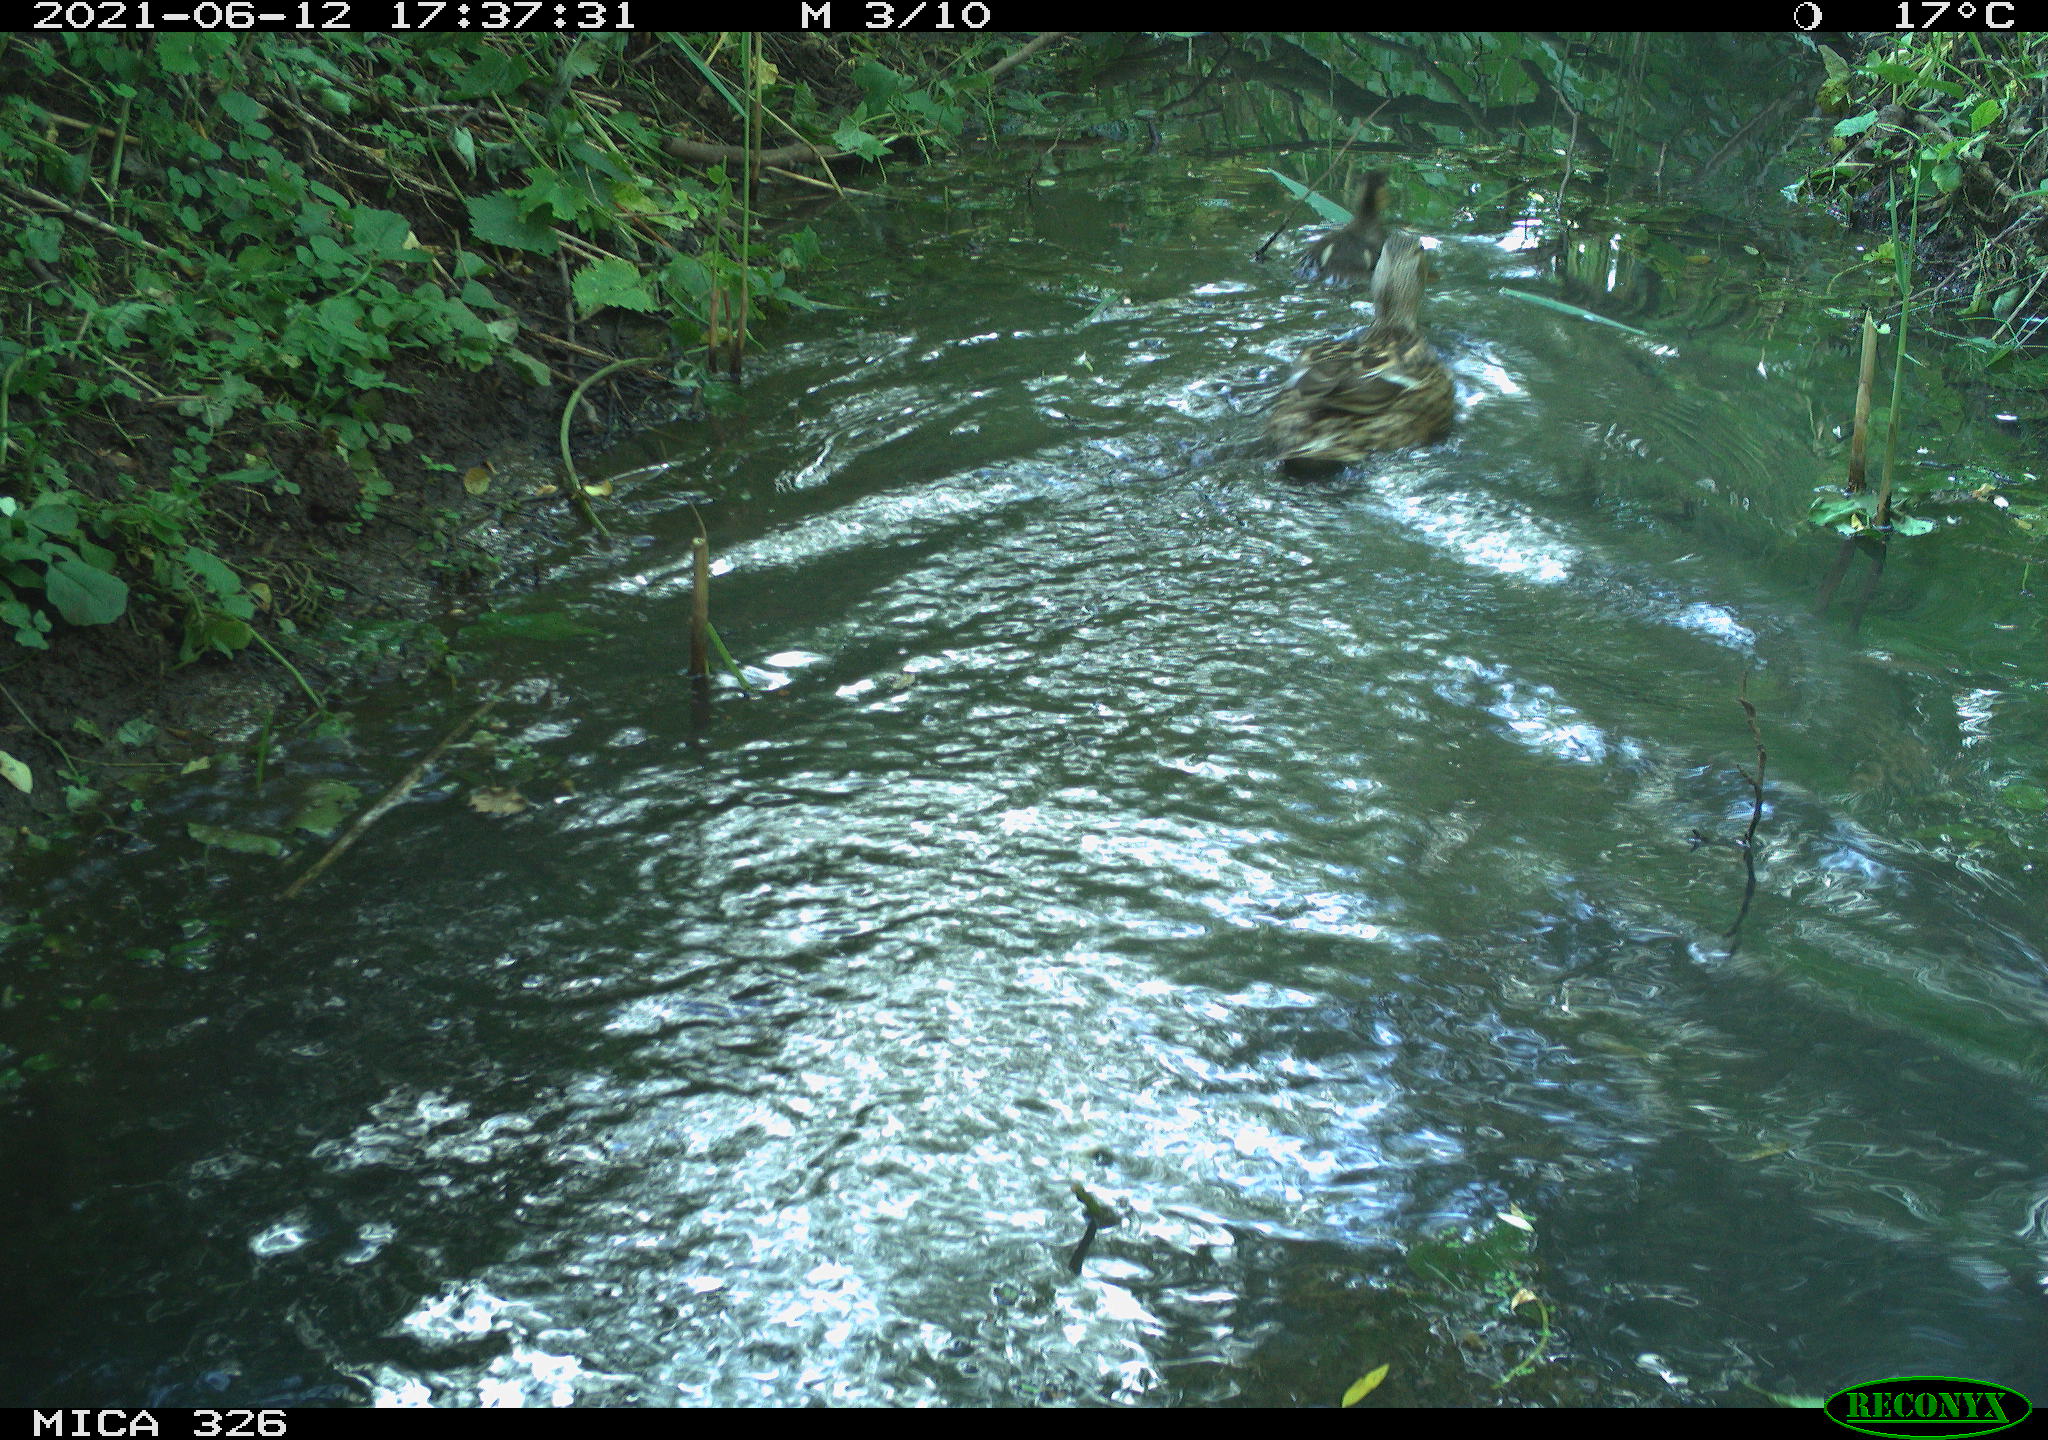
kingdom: Animalia
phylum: Chordata
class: Aves
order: Anseriformes
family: Anatidae
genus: Anas
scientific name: Anas platyrhynchos
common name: Mallard
